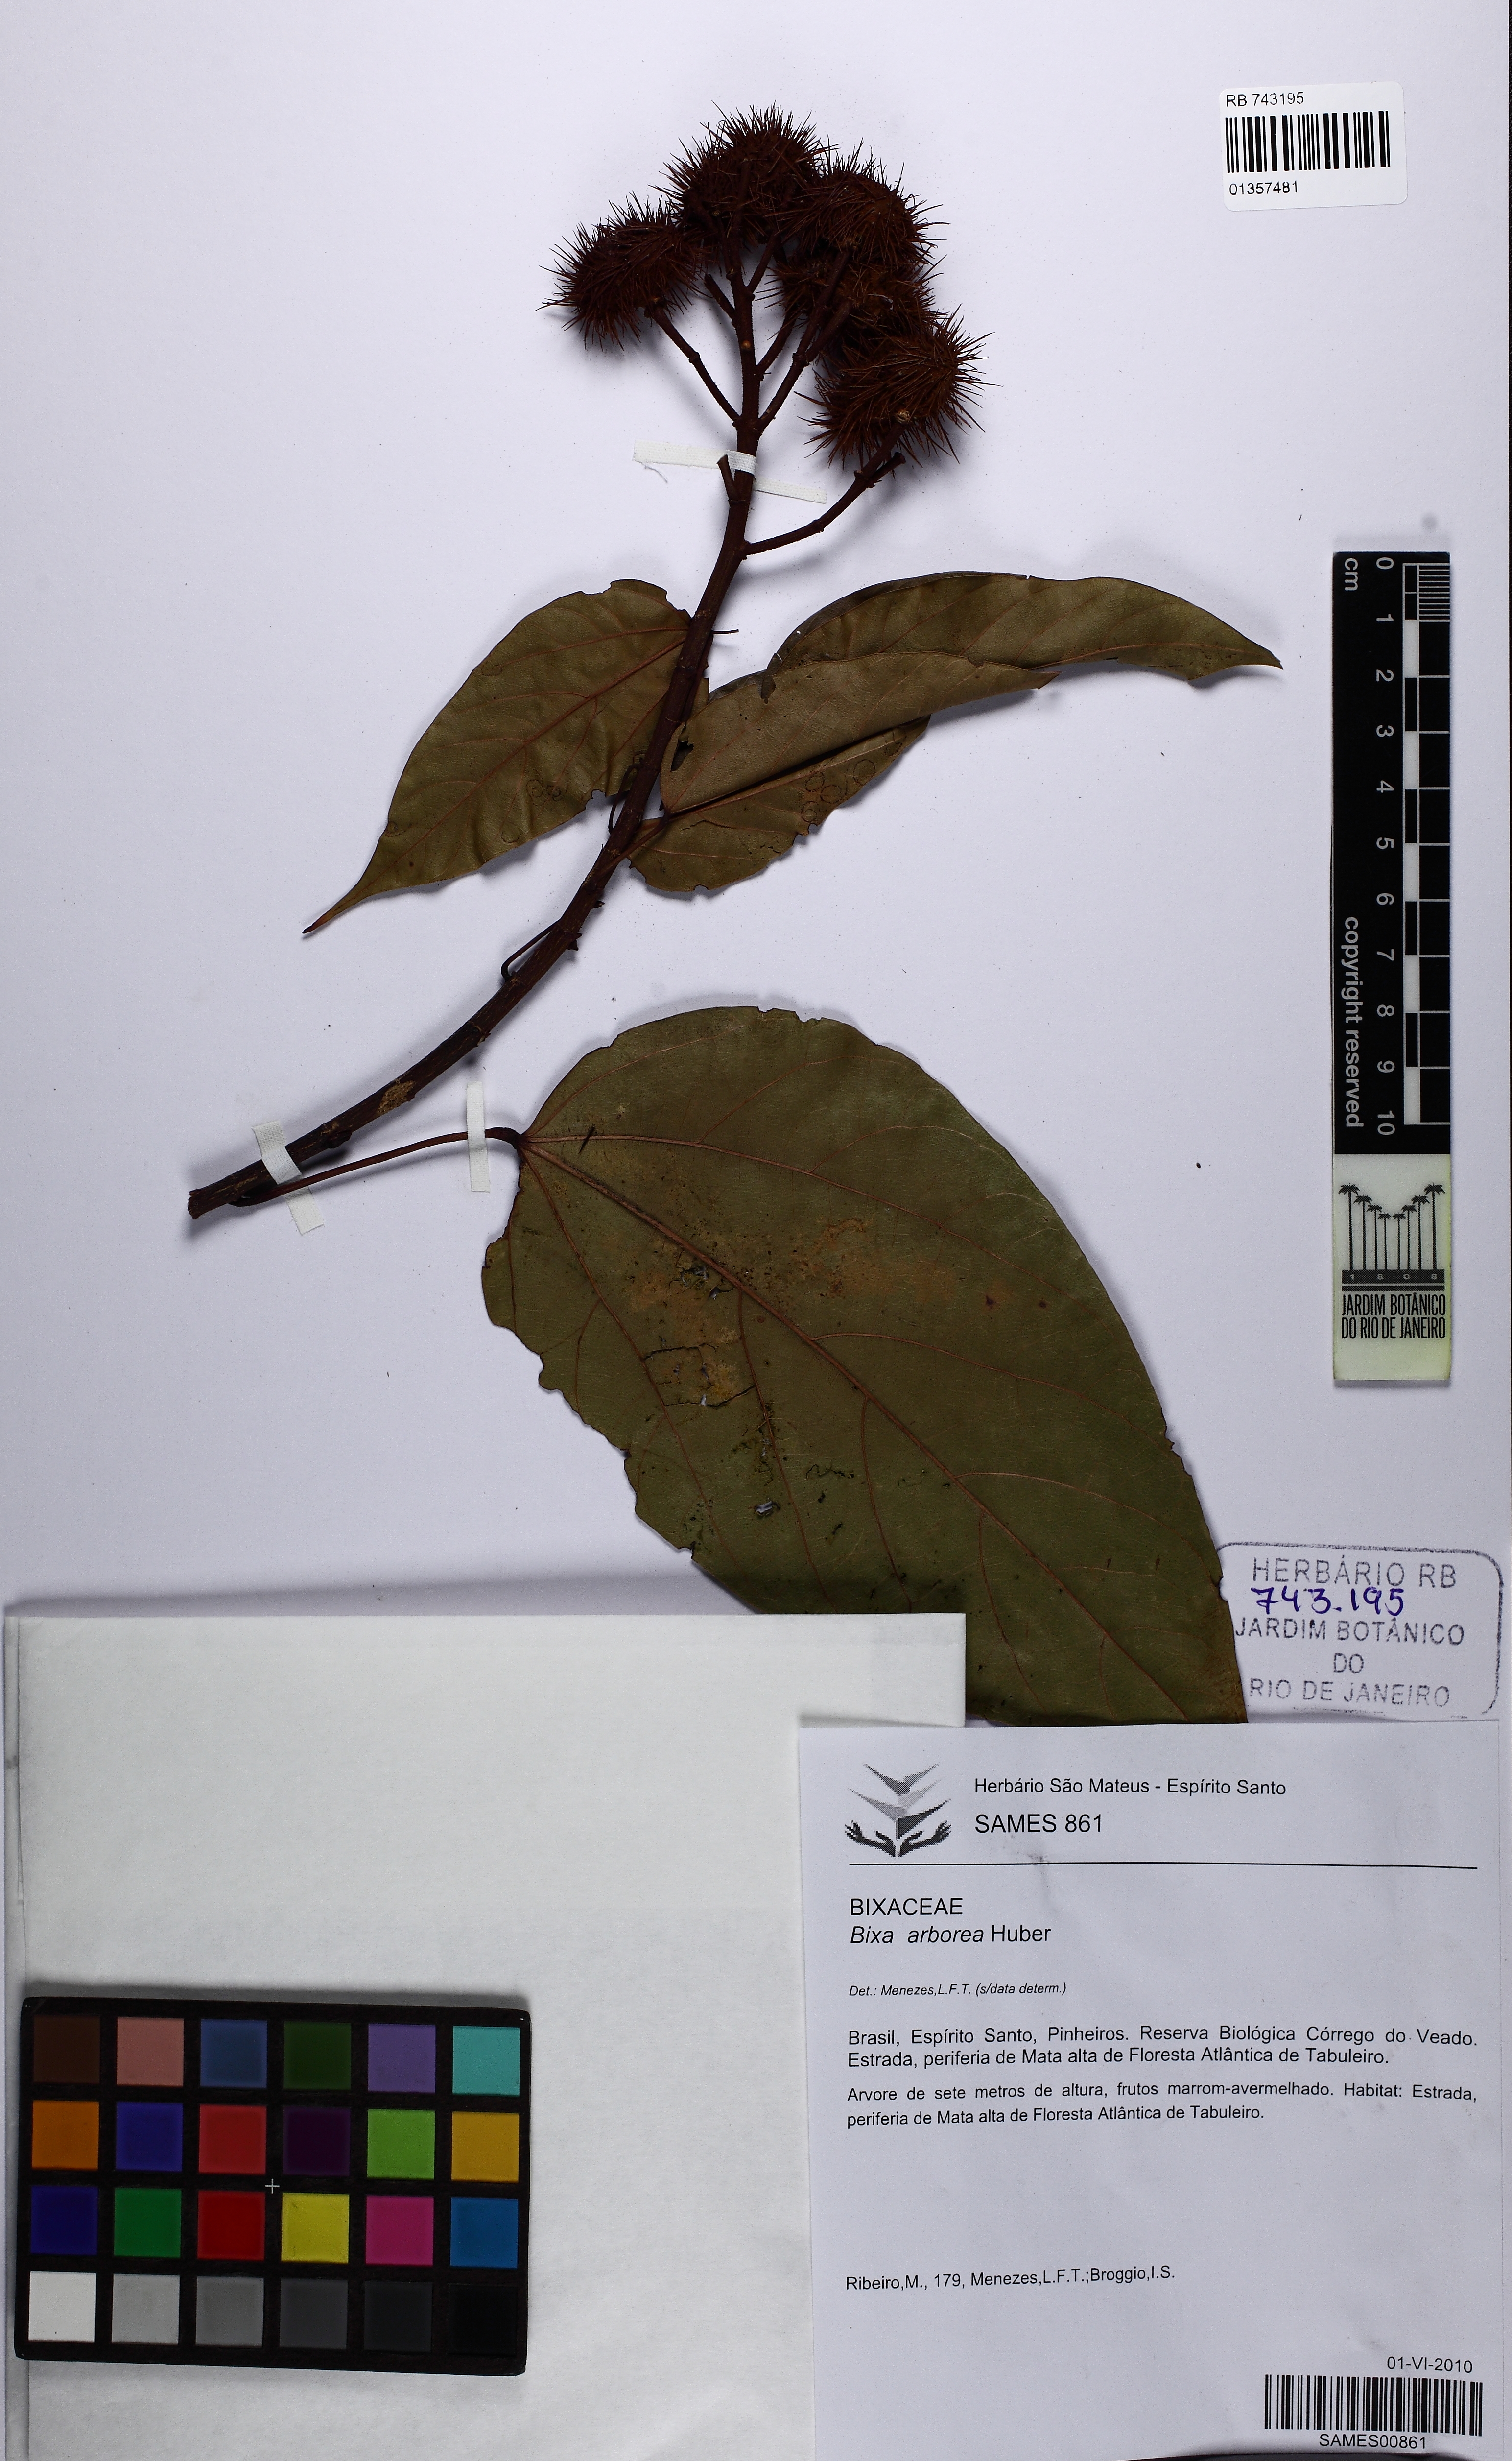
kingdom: Plantae
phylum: Tracheophyta
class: Magnoliopsida
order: Malvales
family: Bixaceae
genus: Bixa
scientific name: Bixa atlantica
